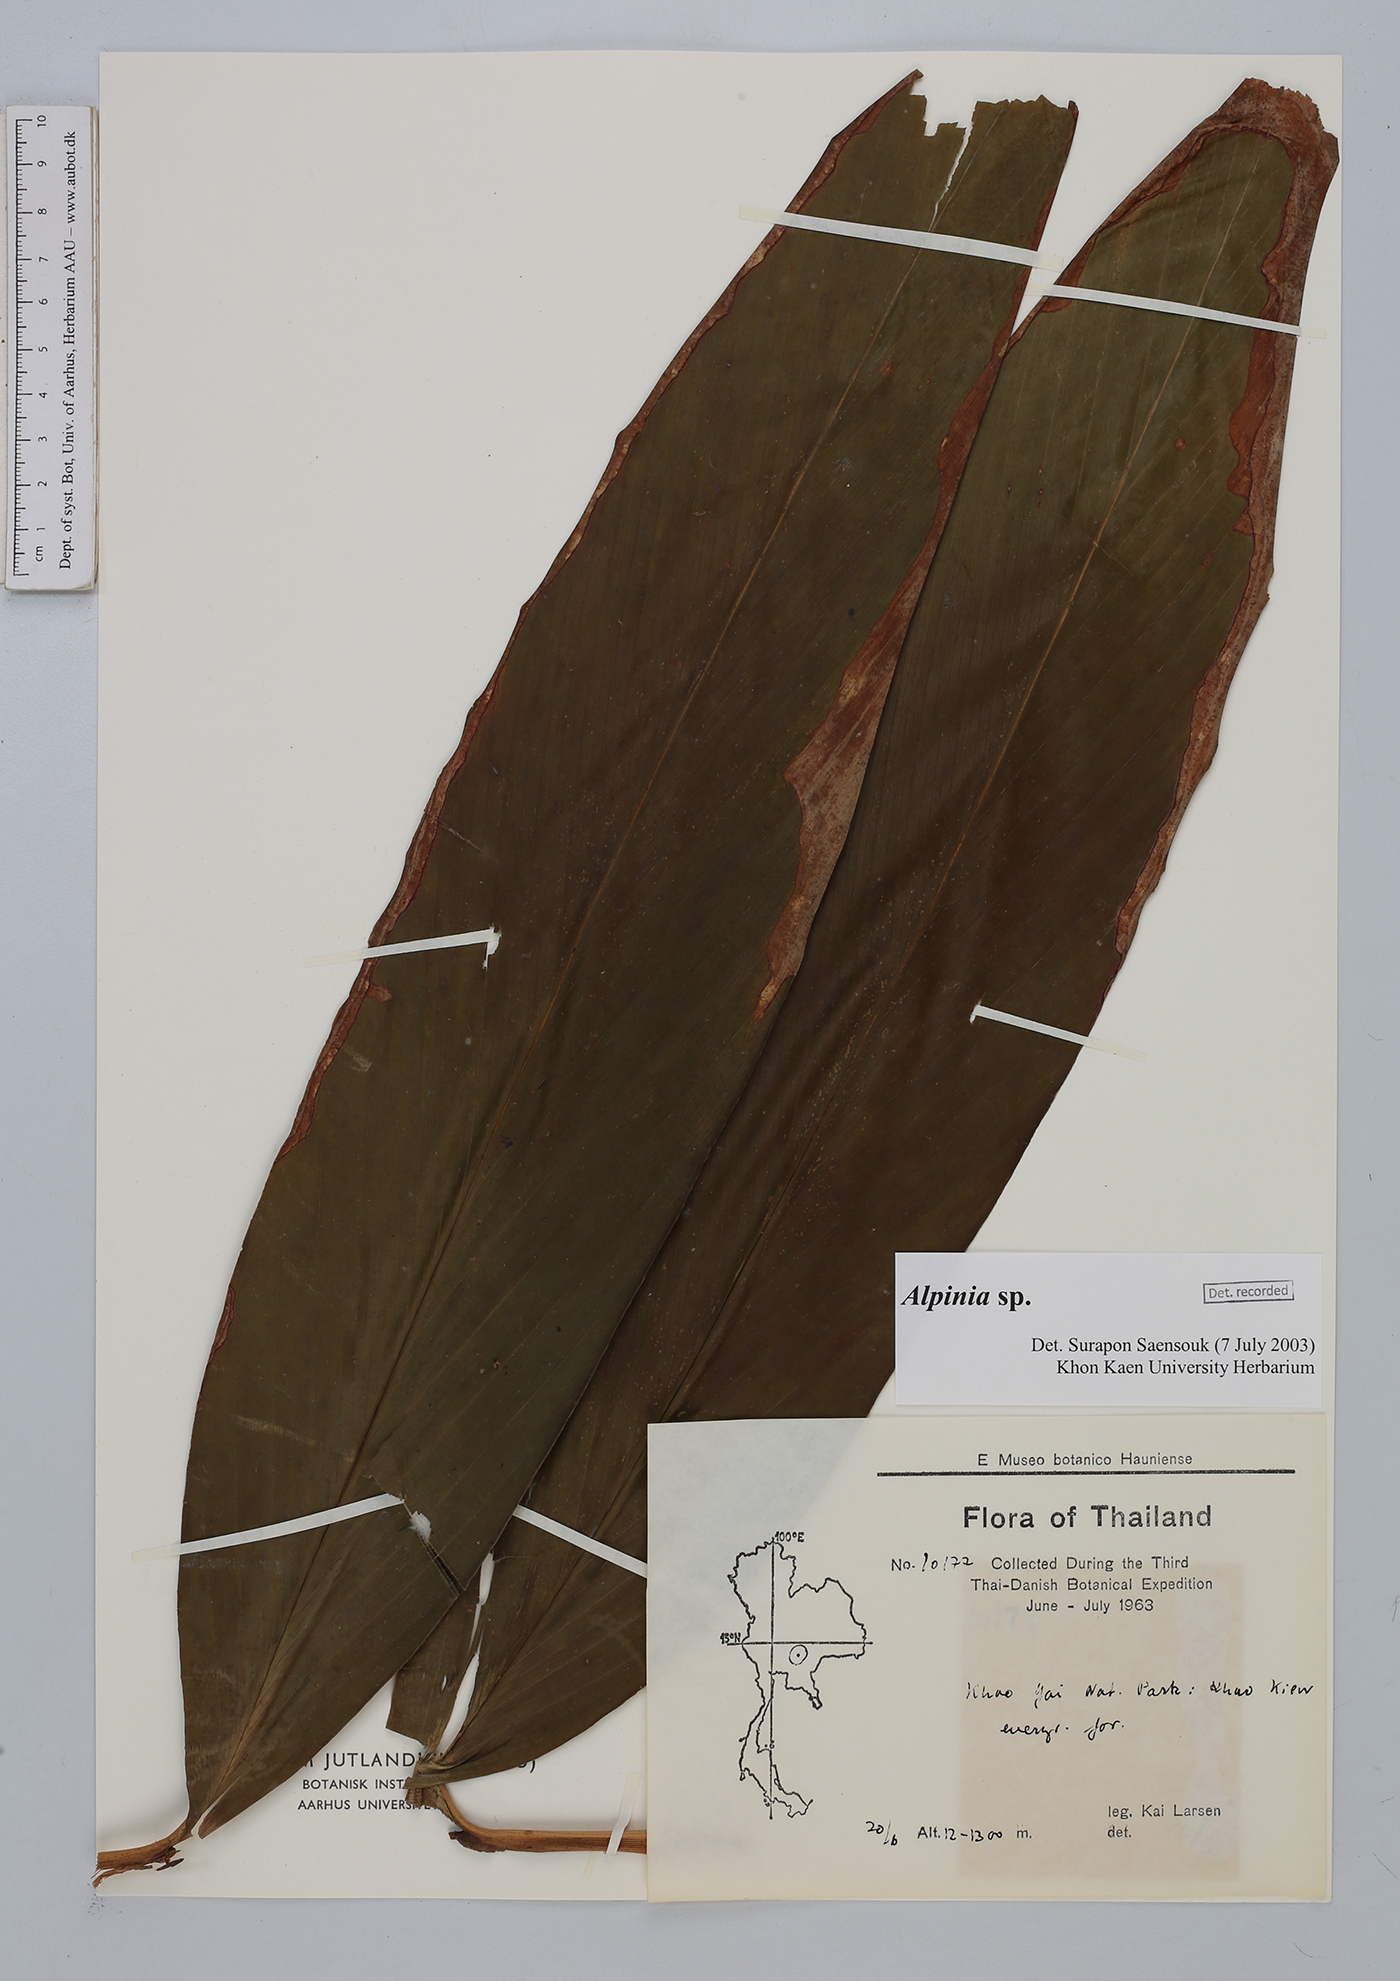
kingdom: Plantae
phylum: Tracheophyta
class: Liliopsida
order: Zingiberales
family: Zingiberaceae
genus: Alpinia
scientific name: Alpinia
